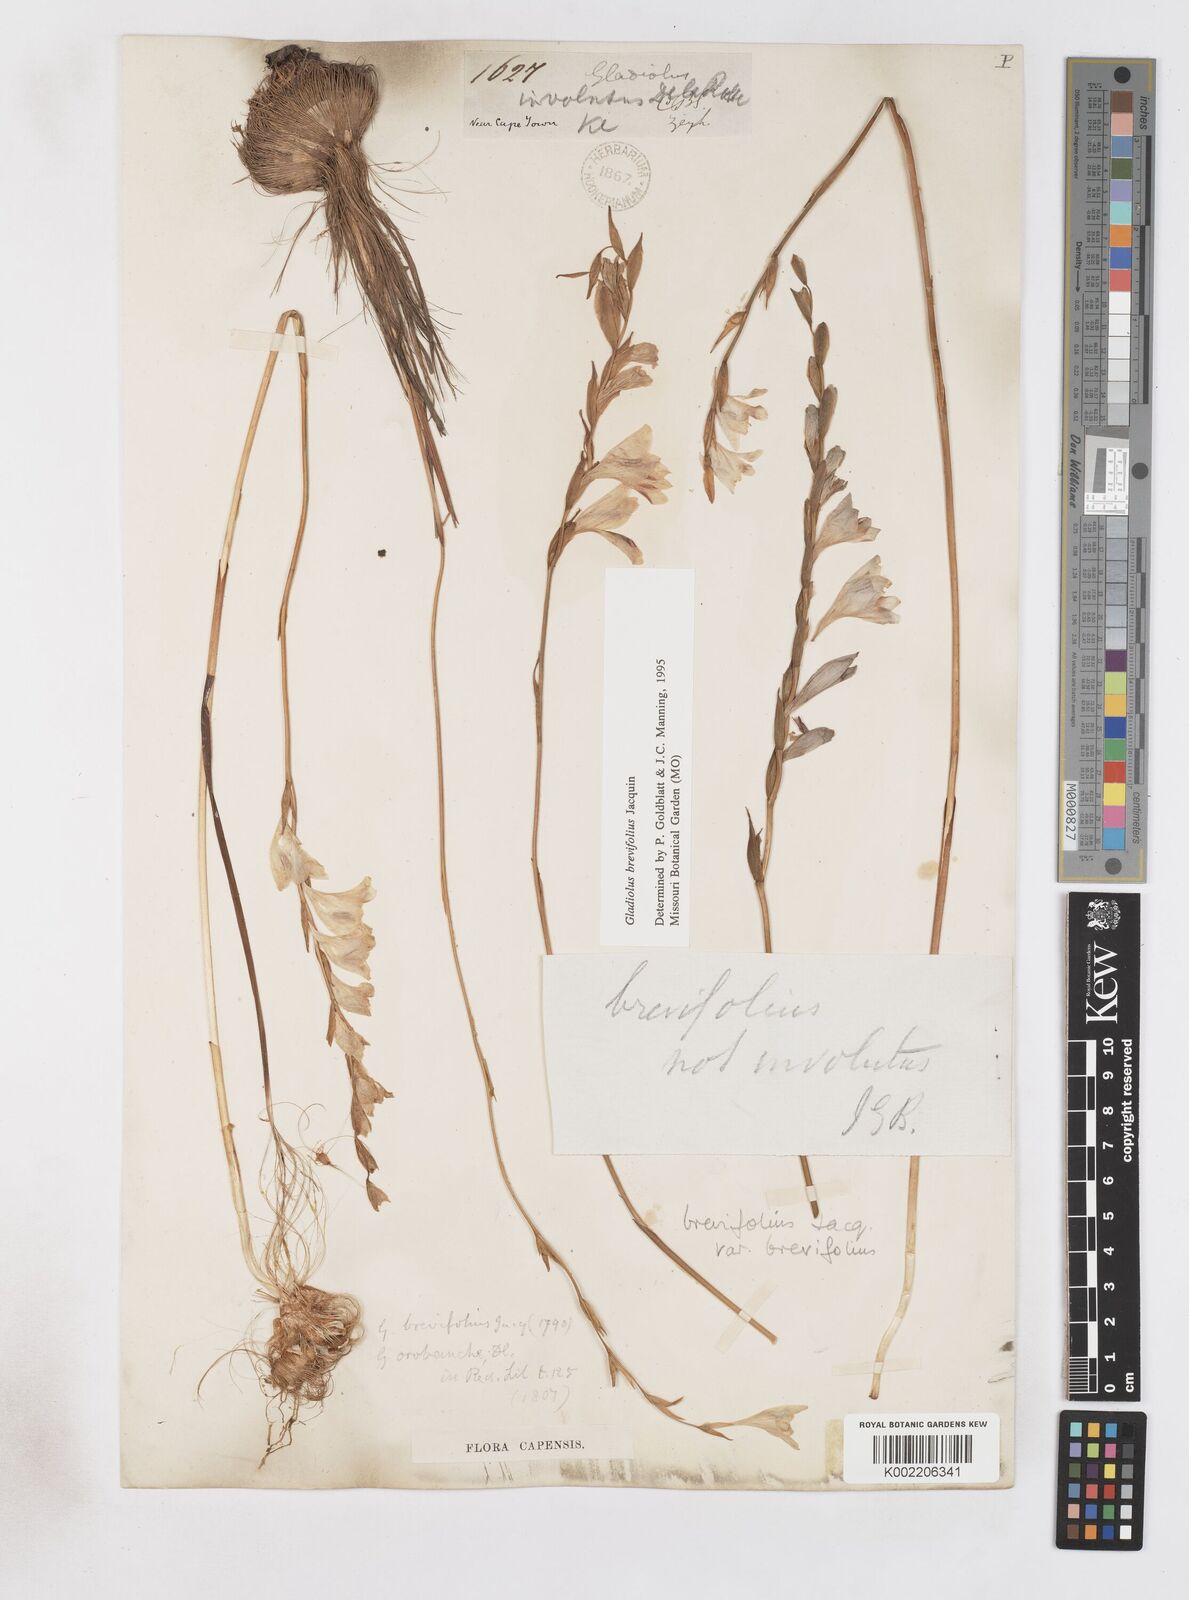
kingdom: Plantae
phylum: Tracheophyta
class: Liliopsida
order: Asparagales
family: Iridaceae
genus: Gladiolus
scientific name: Gladiolus brevifolius
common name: March pypie
